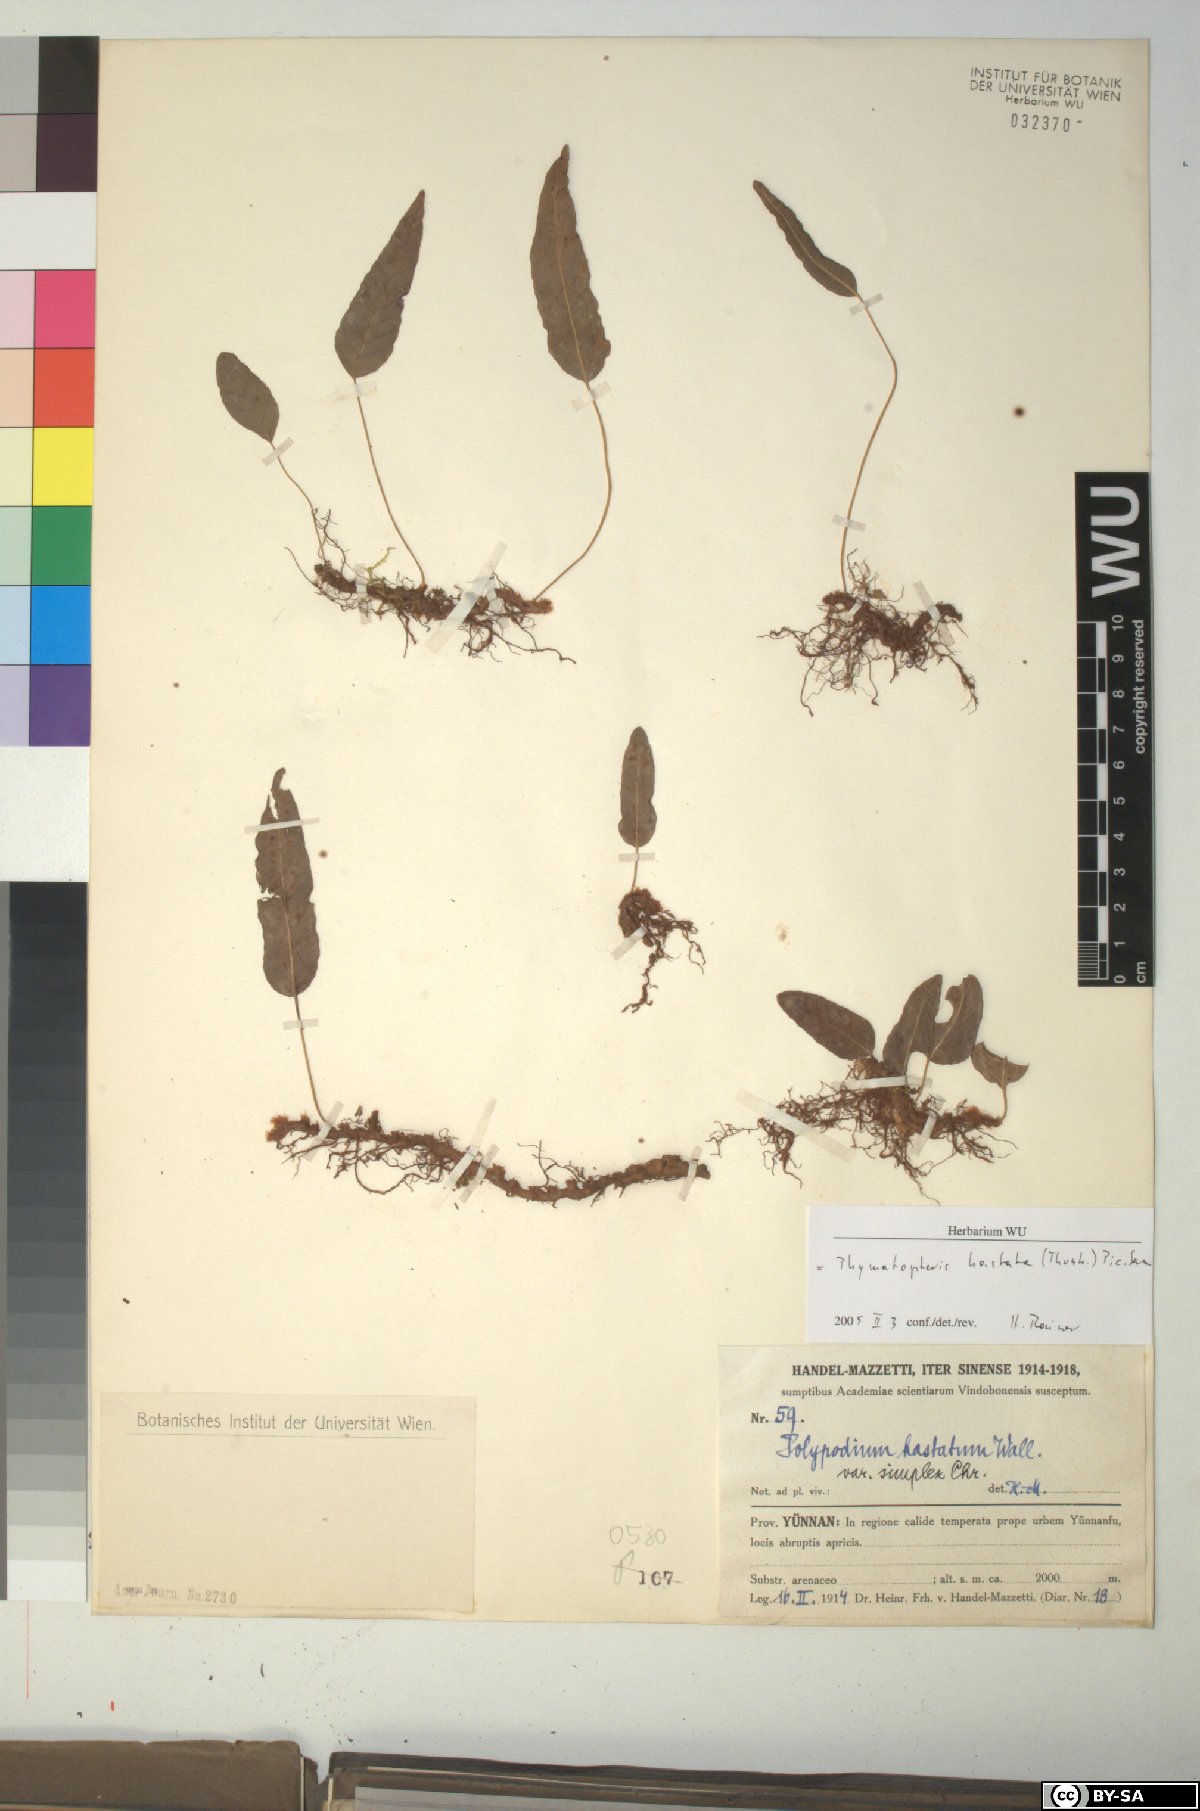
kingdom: Plantae
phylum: Tracheophyta
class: Polypodiopsida
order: Polypodiales
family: Polypodiaceae
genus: Selliguea
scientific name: Selliguea hastata
